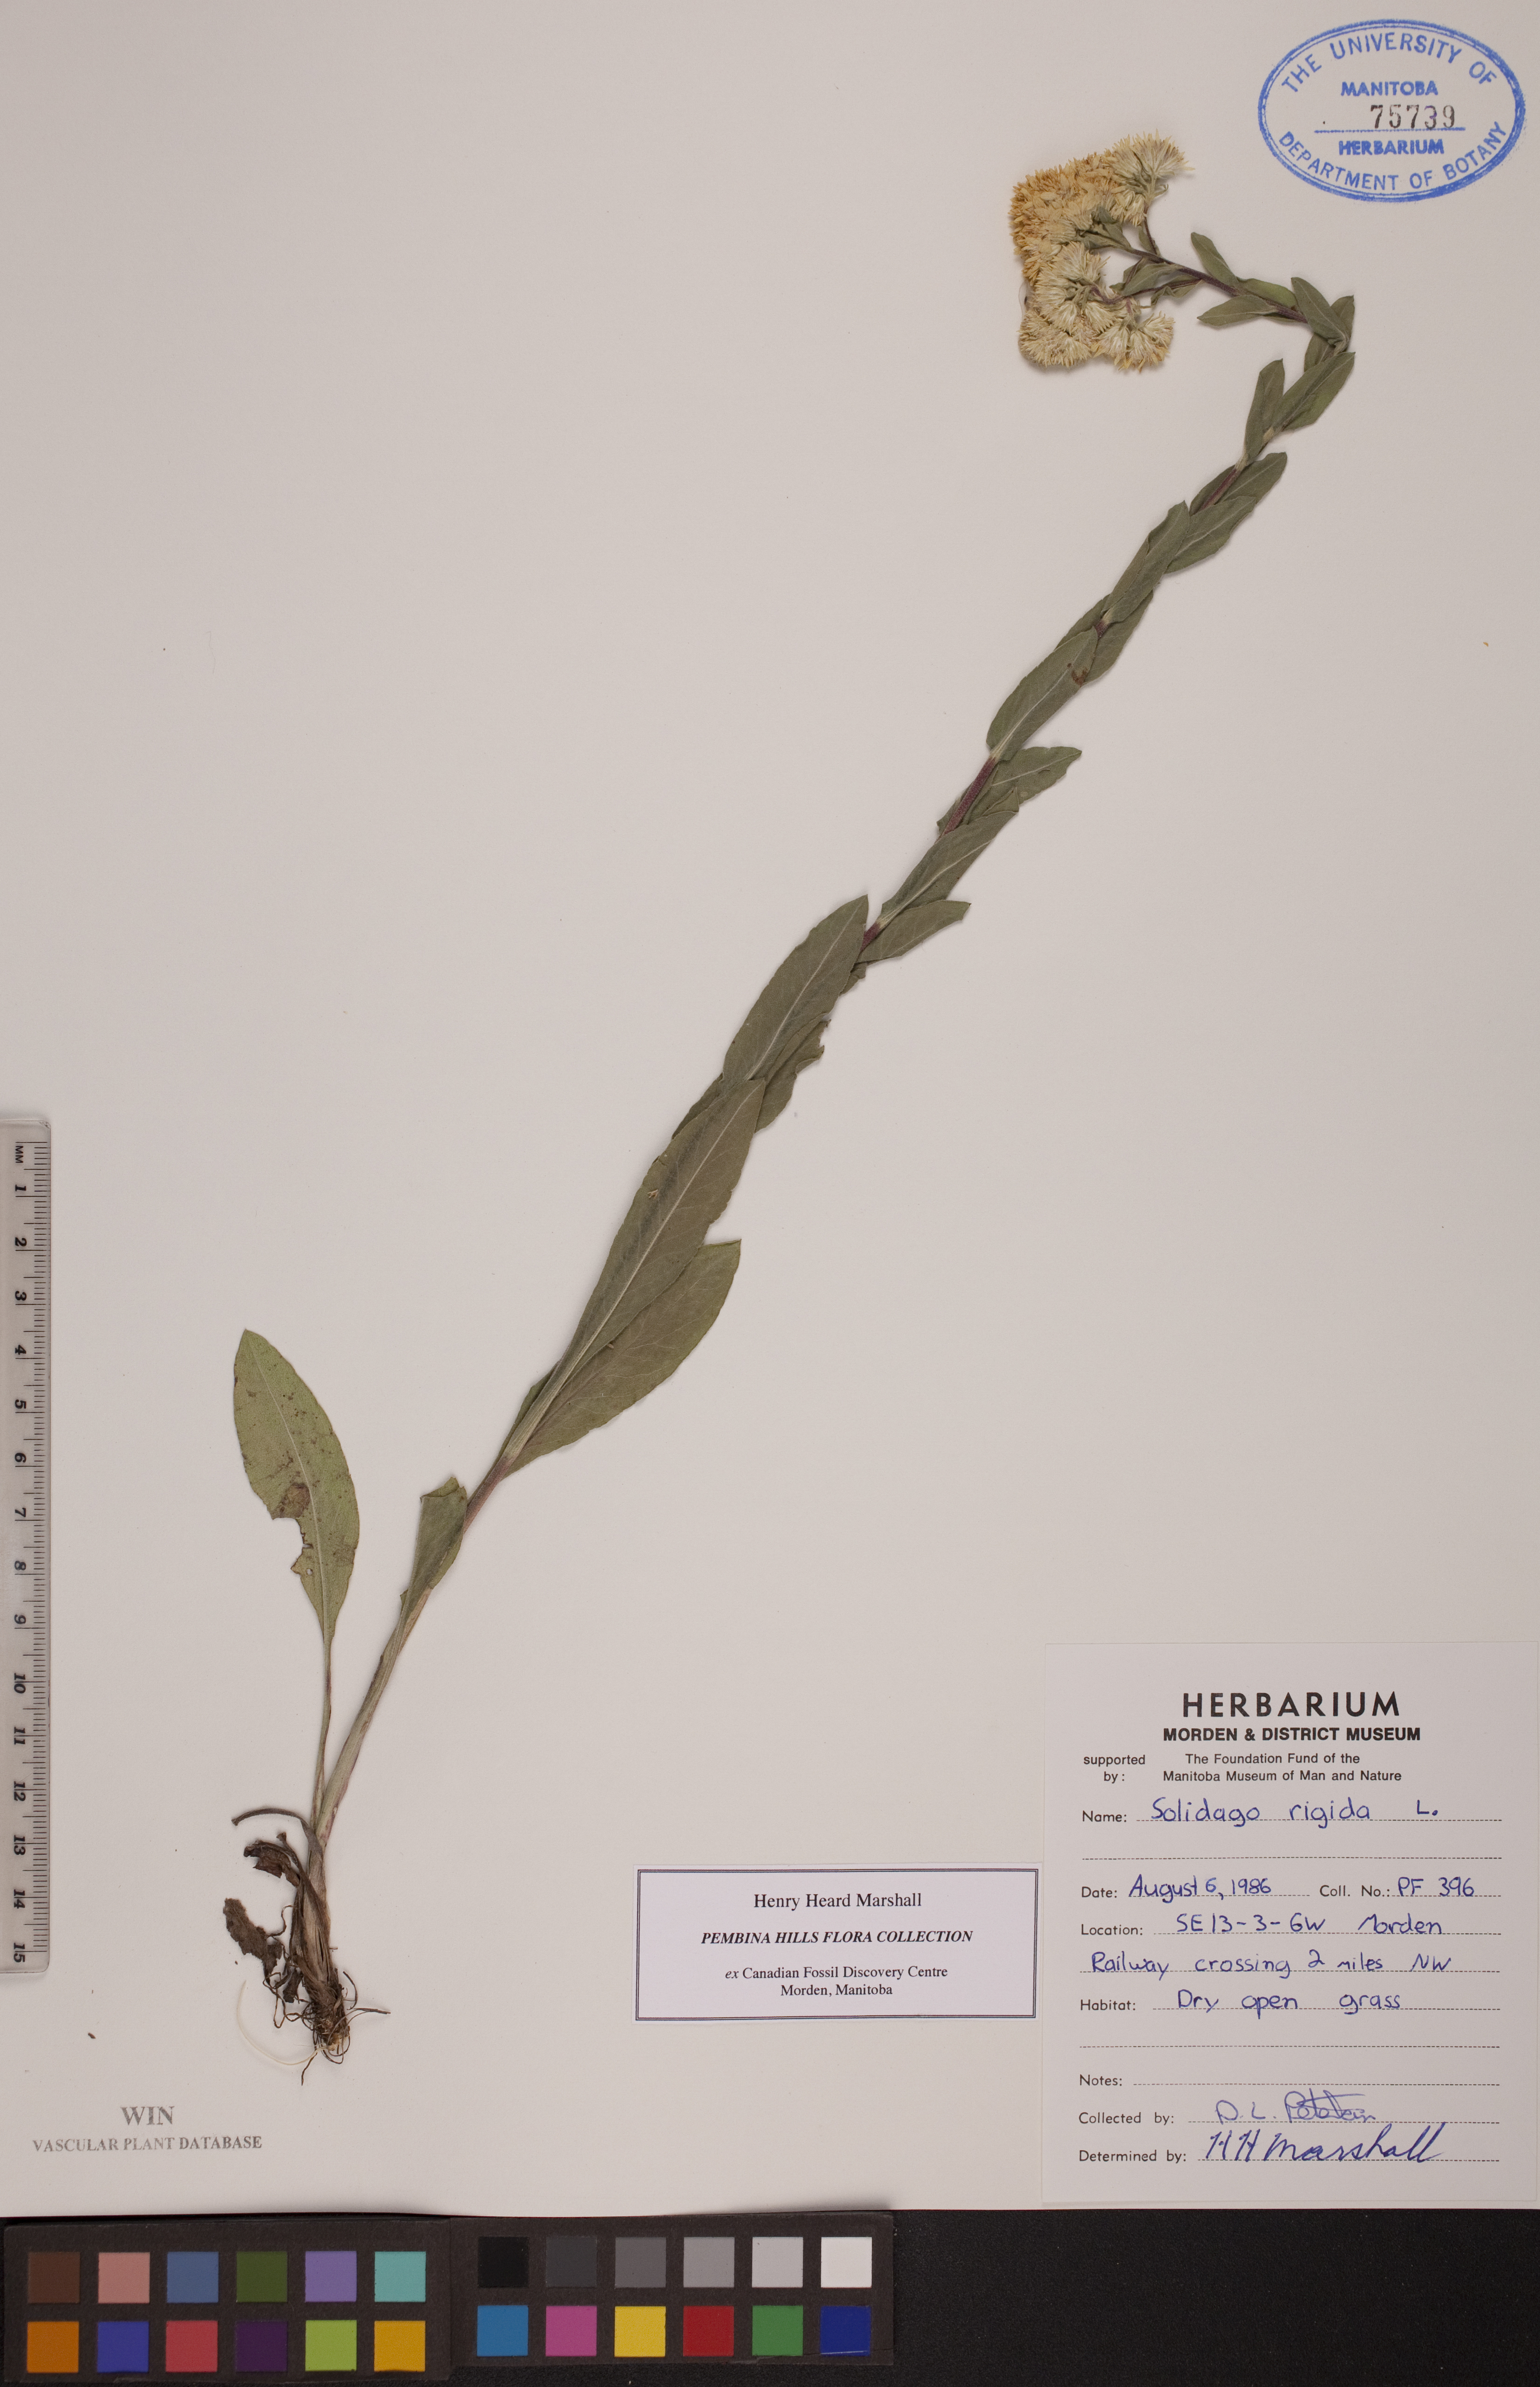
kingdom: Plantae
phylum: Tracheophyta
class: Magnoliopsida
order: Asterales
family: Asteraceae
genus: Solidago
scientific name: Solidago rigida
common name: Rigid goldenrod
